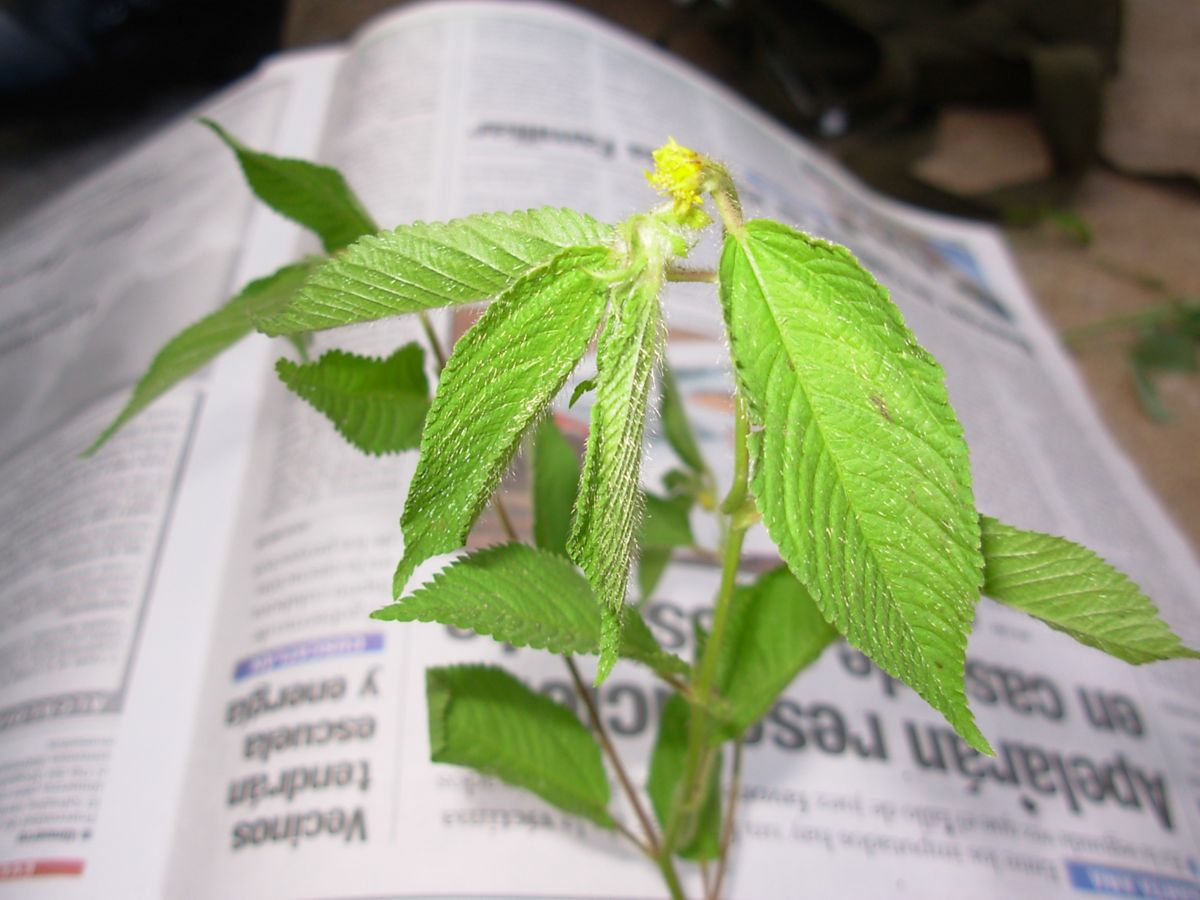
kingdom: Plantae
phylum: Tracheophyta
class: Magnoliopsida
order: Malvales
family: Malvaceae
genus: Corchorus
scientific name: Corchorus hirtus
